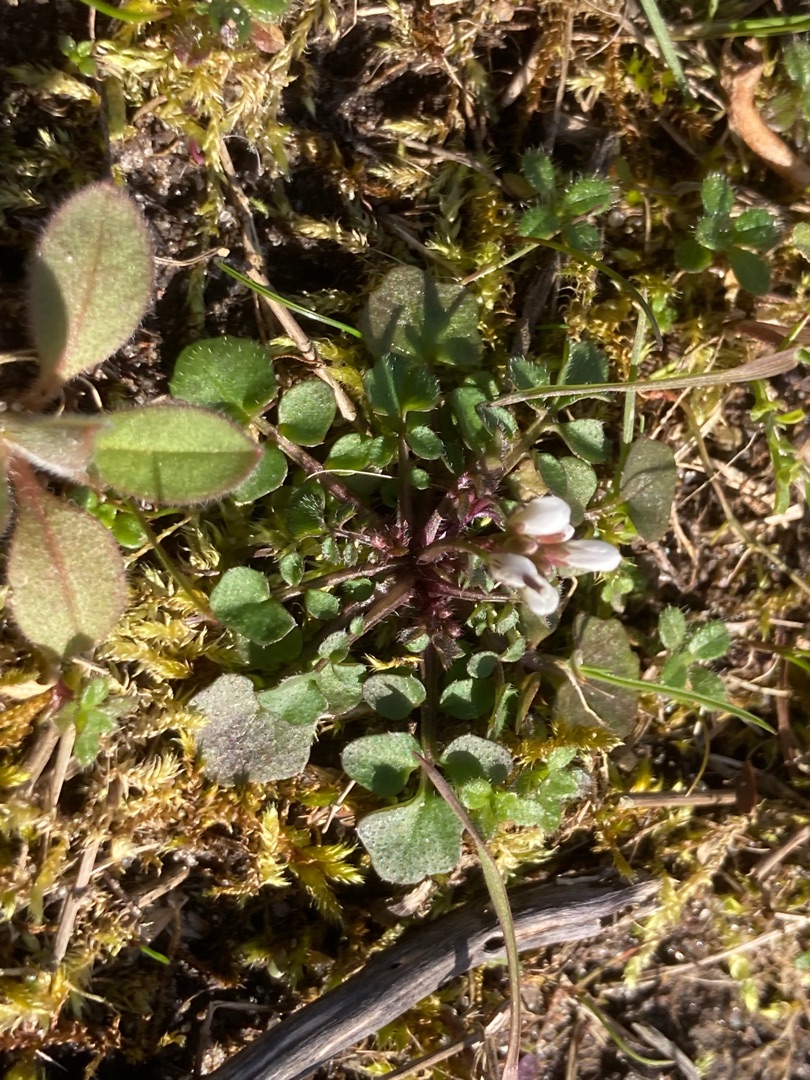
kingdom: Plantae
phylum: Tracheophyta
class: Magnoliopsida
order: Brassicales
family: Brassicaceae
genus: Cardamine
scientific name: Cardamine hirsuta
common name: Roset-springklap
